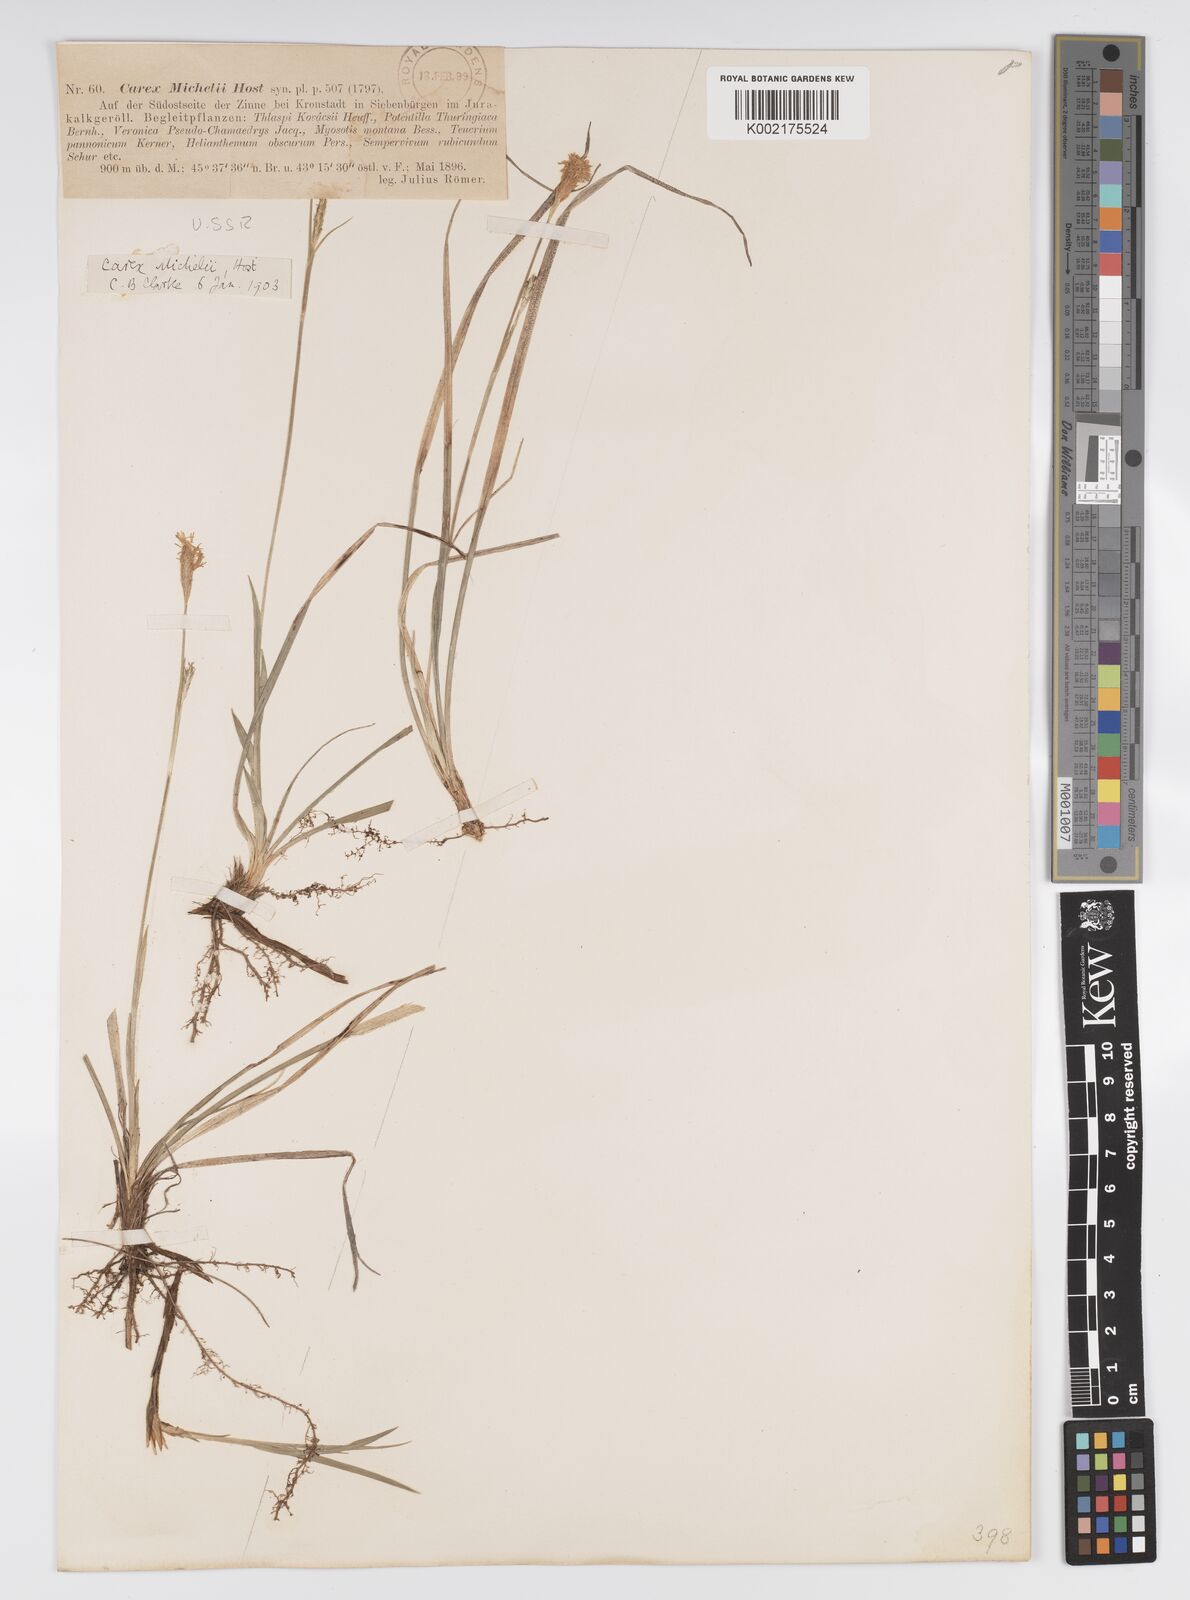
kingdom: Plantae
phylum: Tracheophyta
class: Liliopsida
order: Poales
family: Cyperaceae
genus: Carex
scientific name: Carex michelii
